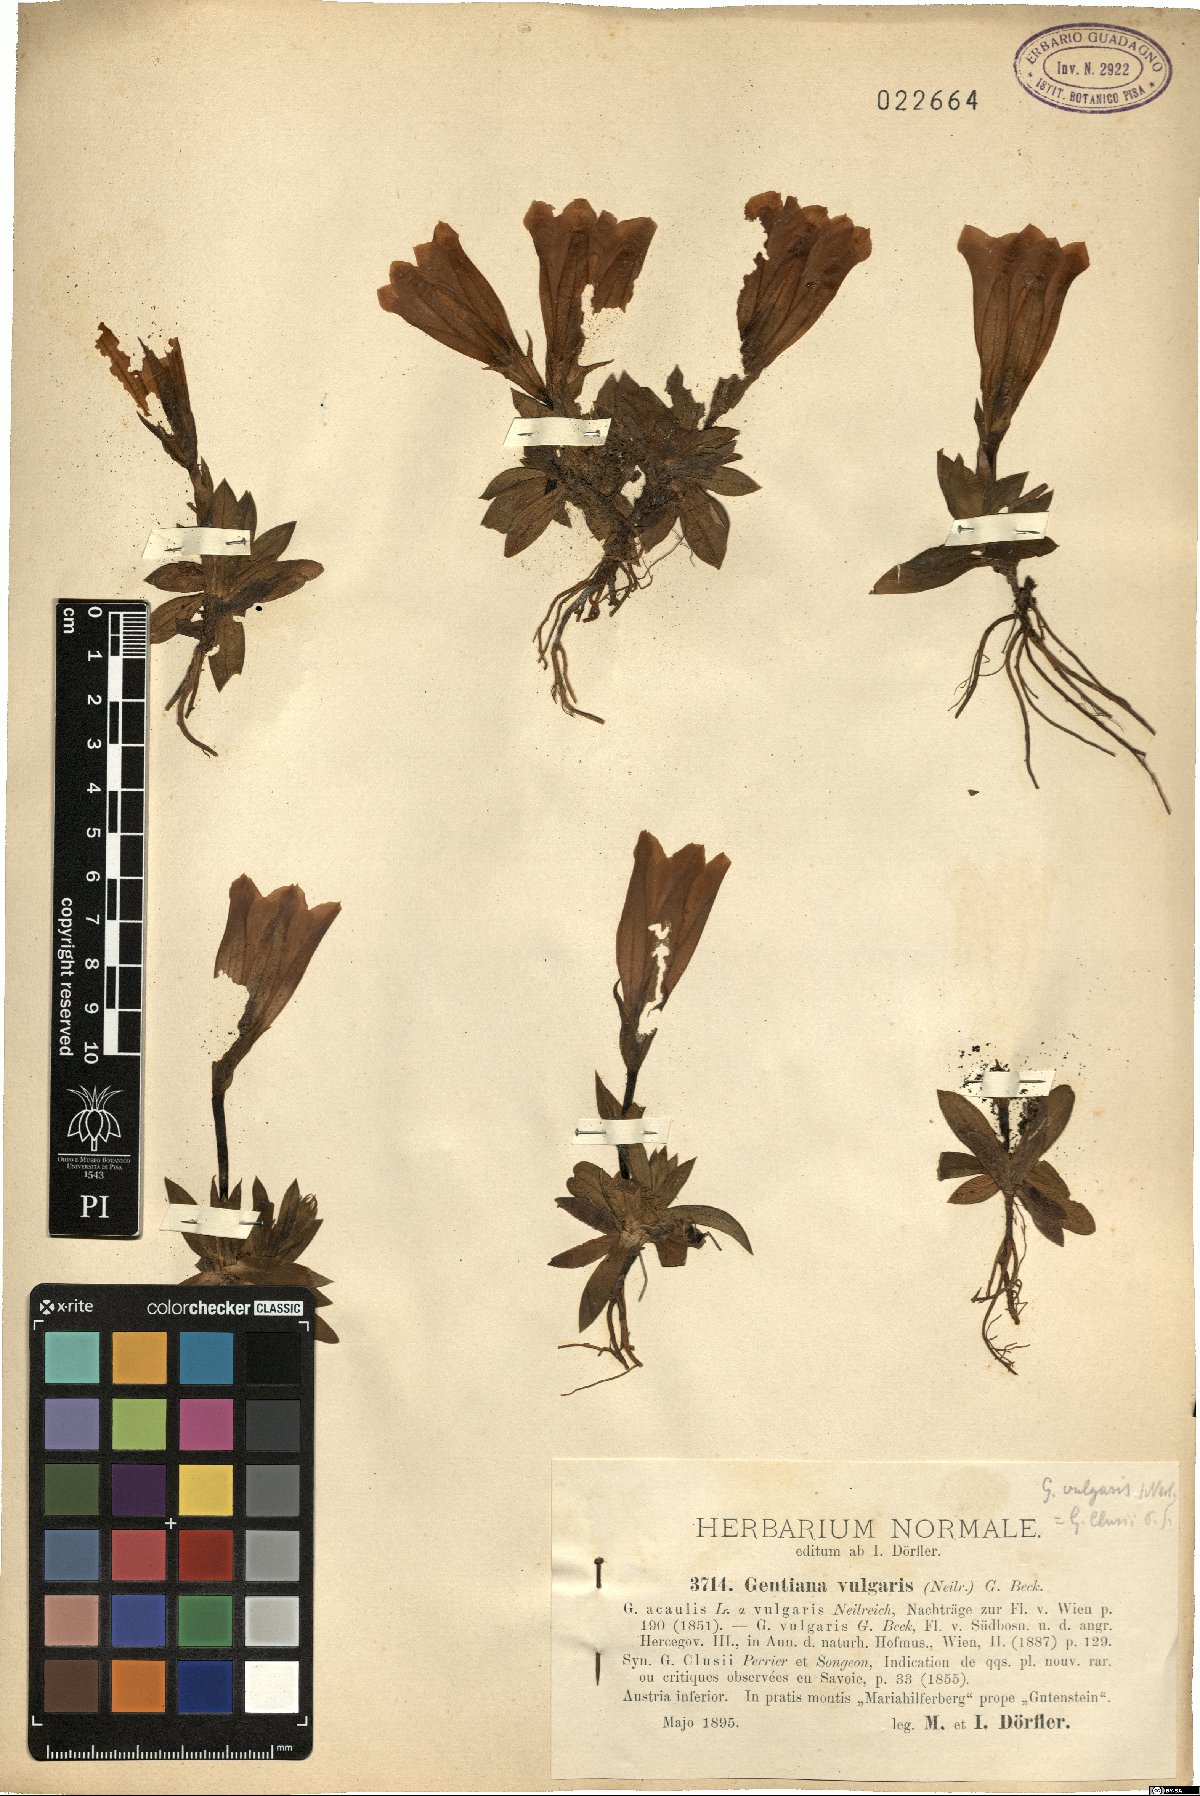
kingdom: Plantae
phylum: Tracheophyta
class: Magnoliopsida
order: Gentianales
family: Gentianaceae
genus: Gentiana
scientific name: Gentiana acaulis
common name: Trumpet gentian
